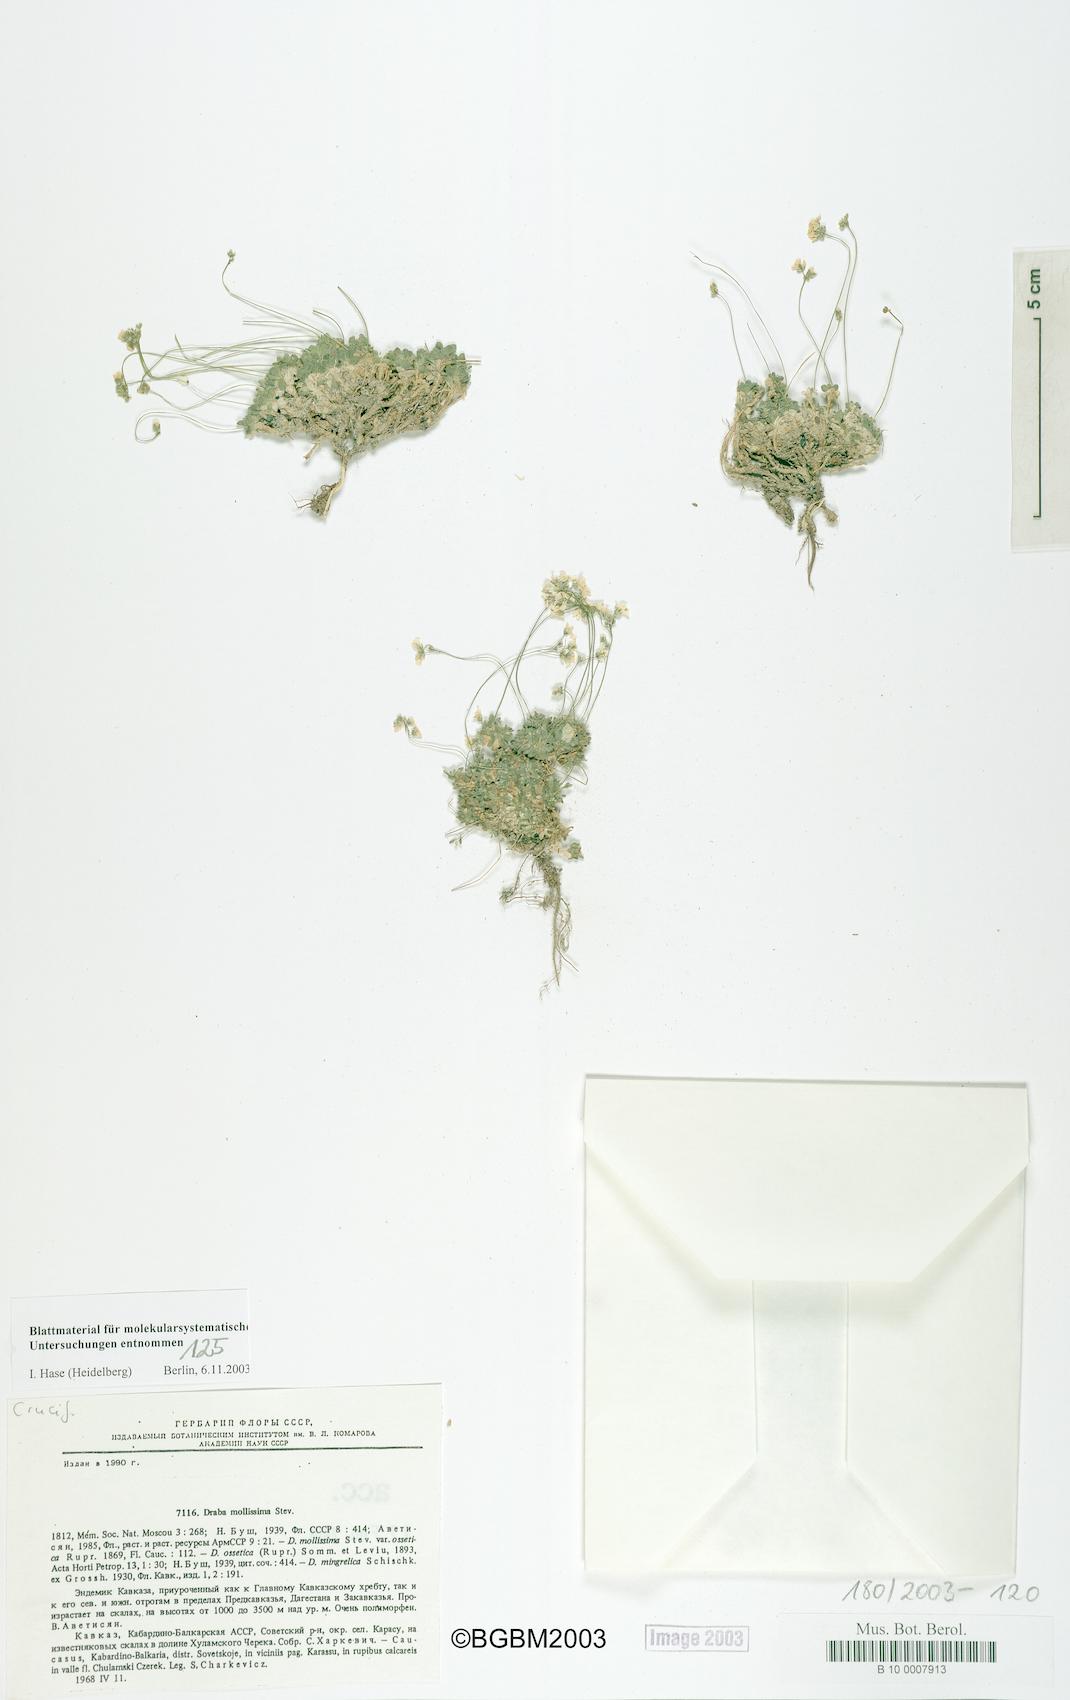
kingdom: Plantae
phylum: Tracheophyta
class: Magnoliopsida
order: Brassicales
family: Brassicaceae
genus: Draba
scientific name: Draba mollissima
